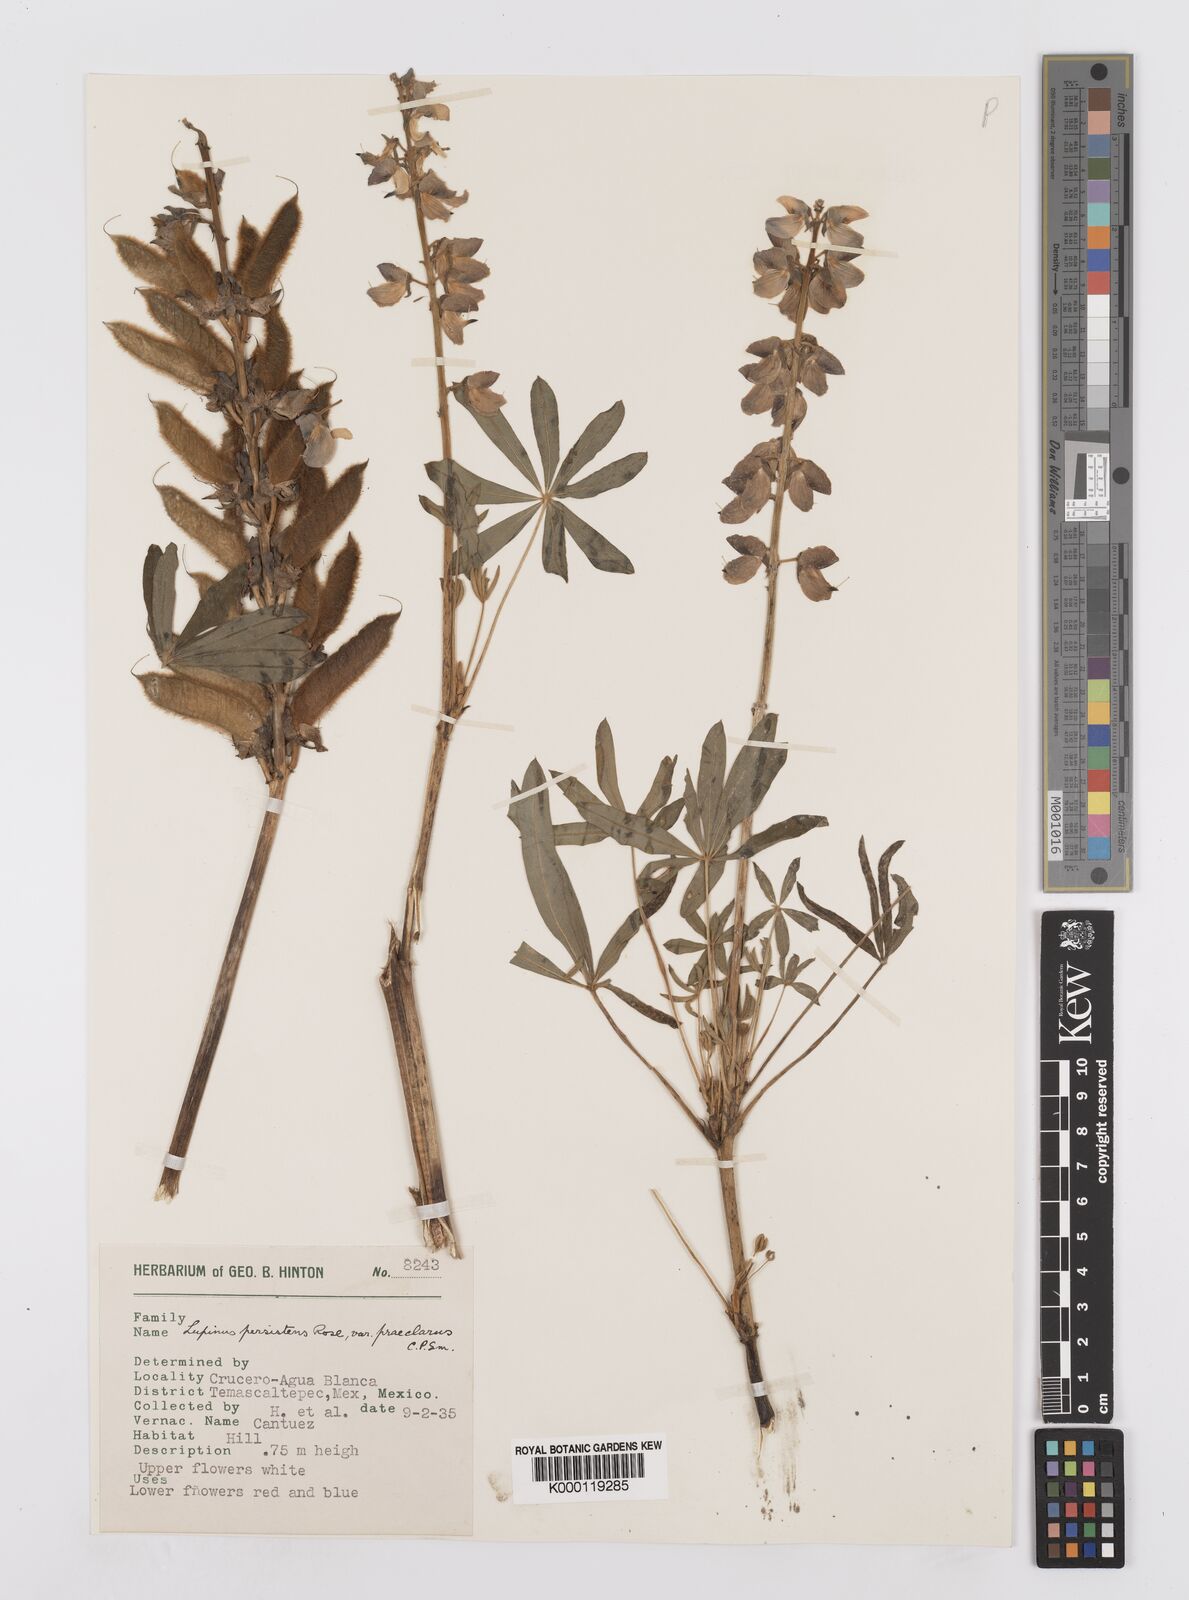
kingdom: Plantae
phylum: Tracheophyta
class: Magnoliopsida
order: Fabales
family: Fabaceae
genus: Lupinus
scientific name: Lupinus persistens
